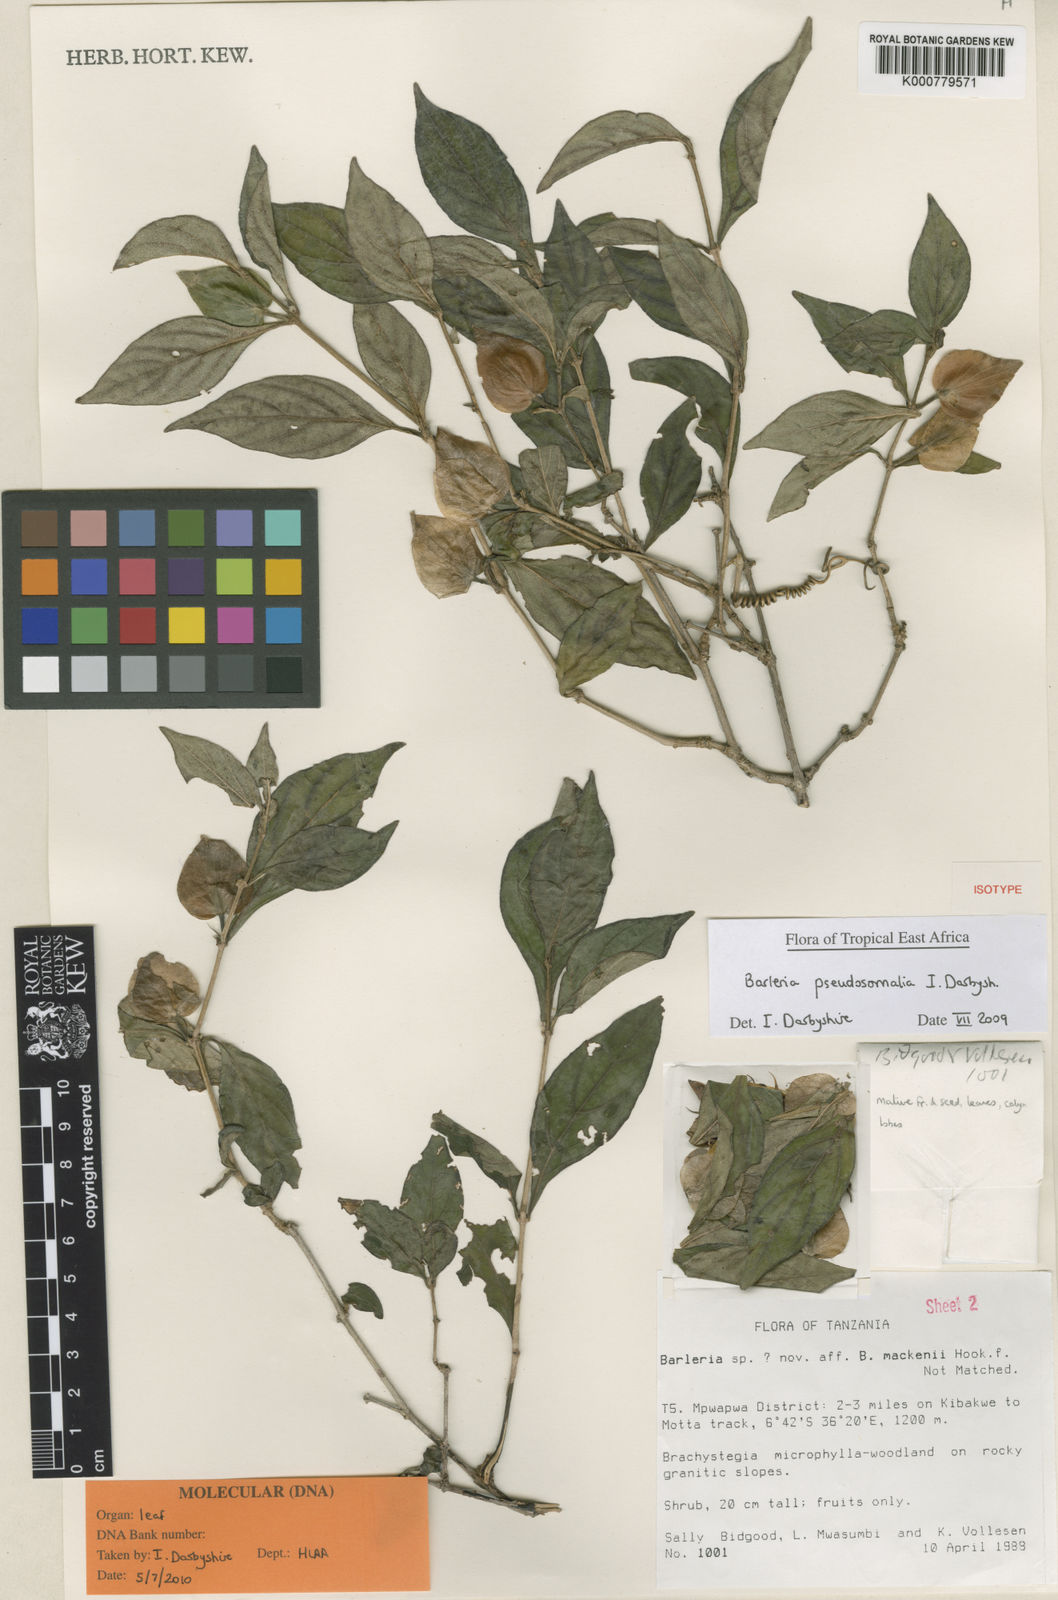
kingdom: Plantae
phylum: Tracheophyta
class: Magnoliopsida
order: Lamiales
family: Acanthaceae
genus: Barleria
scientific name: Barleria pseudosomalia
